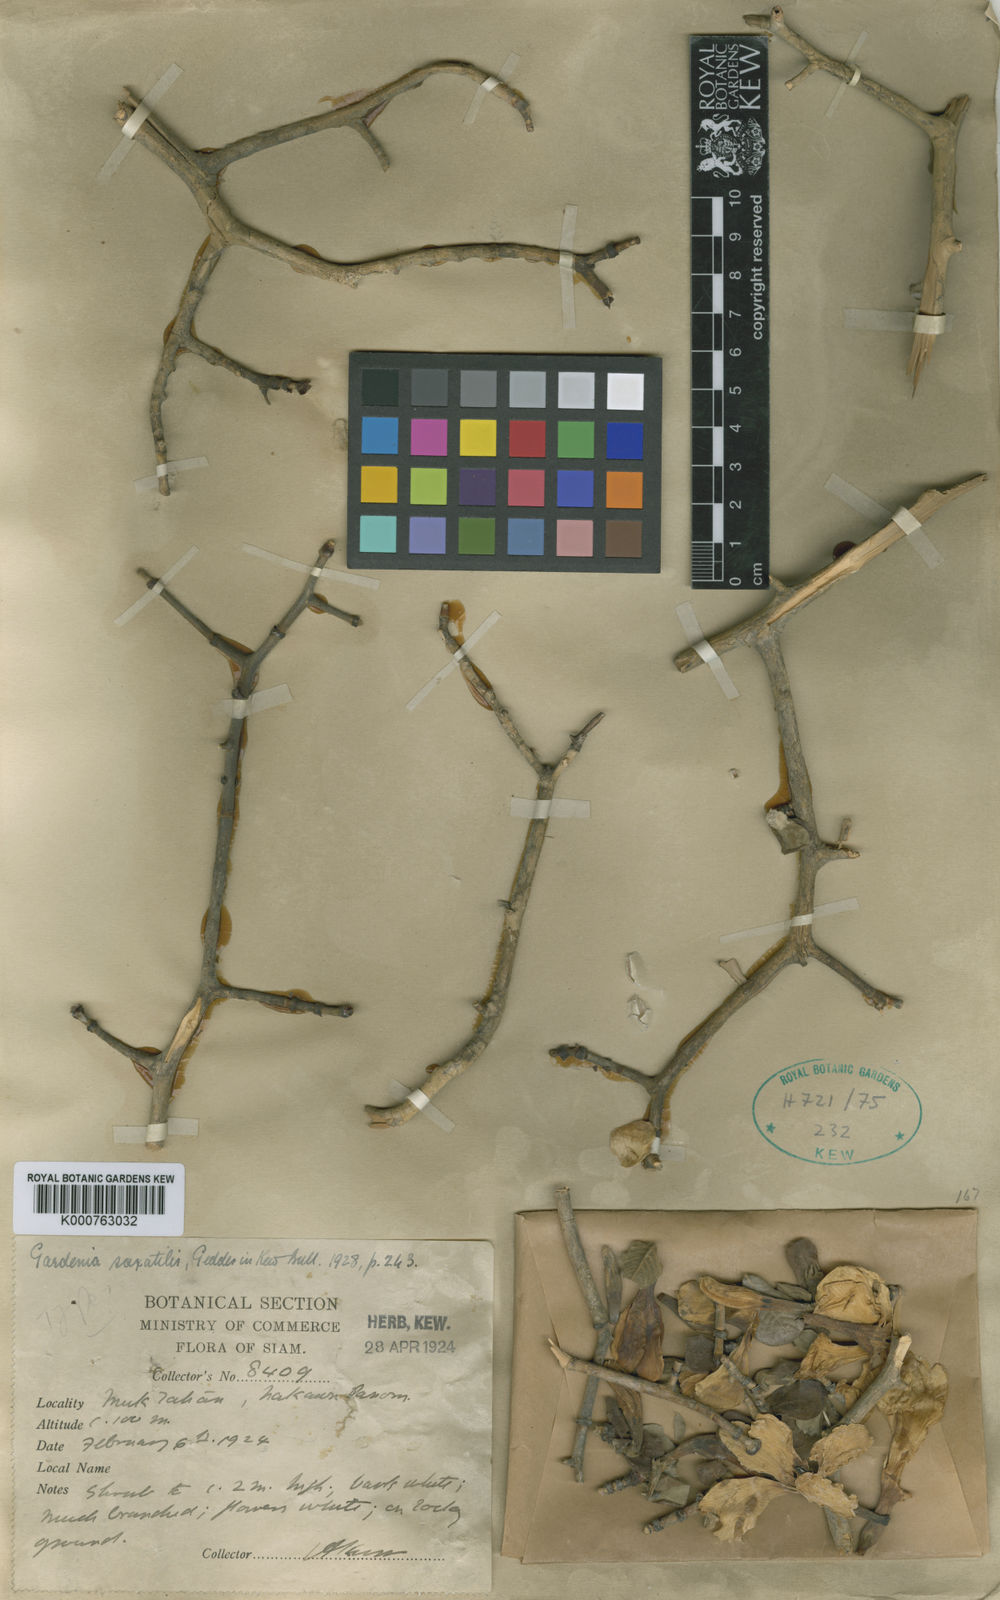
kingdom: Plantae
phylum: Tracheophyta
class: Magnoliopsida
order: Gentianales
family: Rubiaceae
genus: Gardenia
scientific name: Gardenia saxatilis
